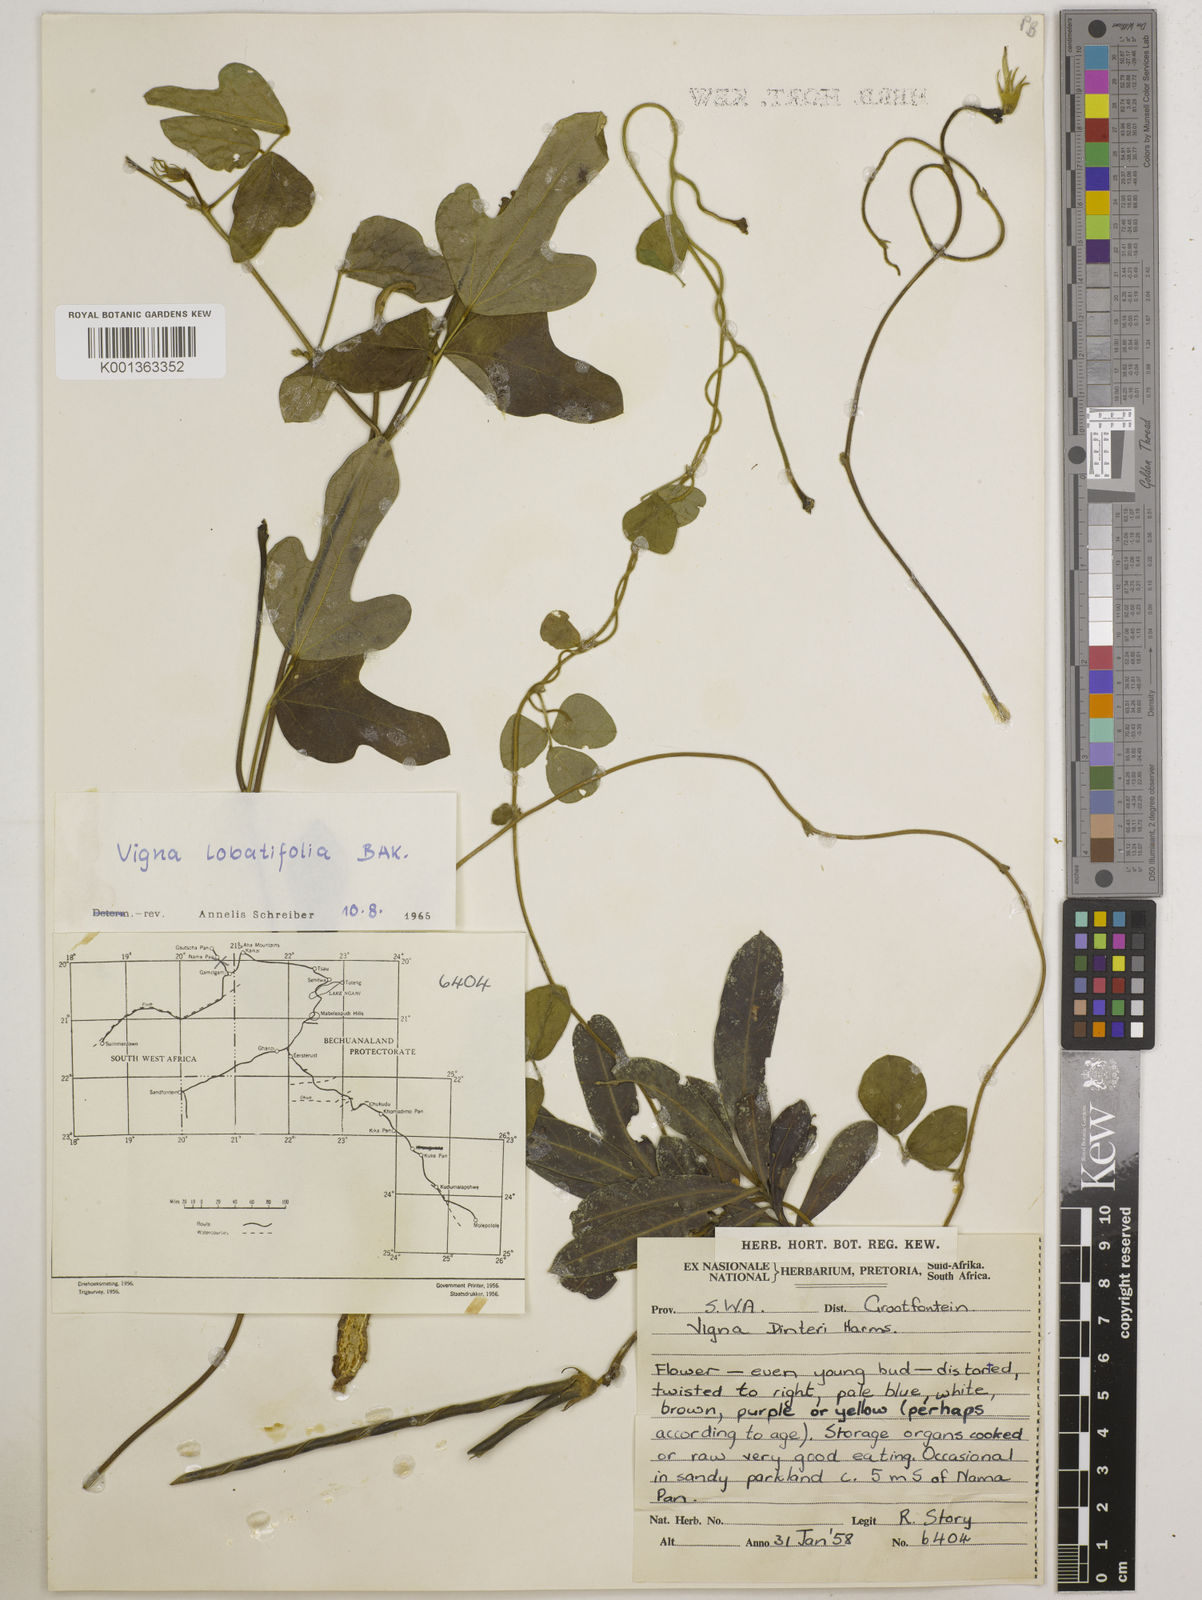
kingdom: Plantae
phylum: Tracheophyta
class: Magnoliopsida
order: Fabales
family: Fabaceae
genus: Vigna
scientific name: Vigna lobatifolia
